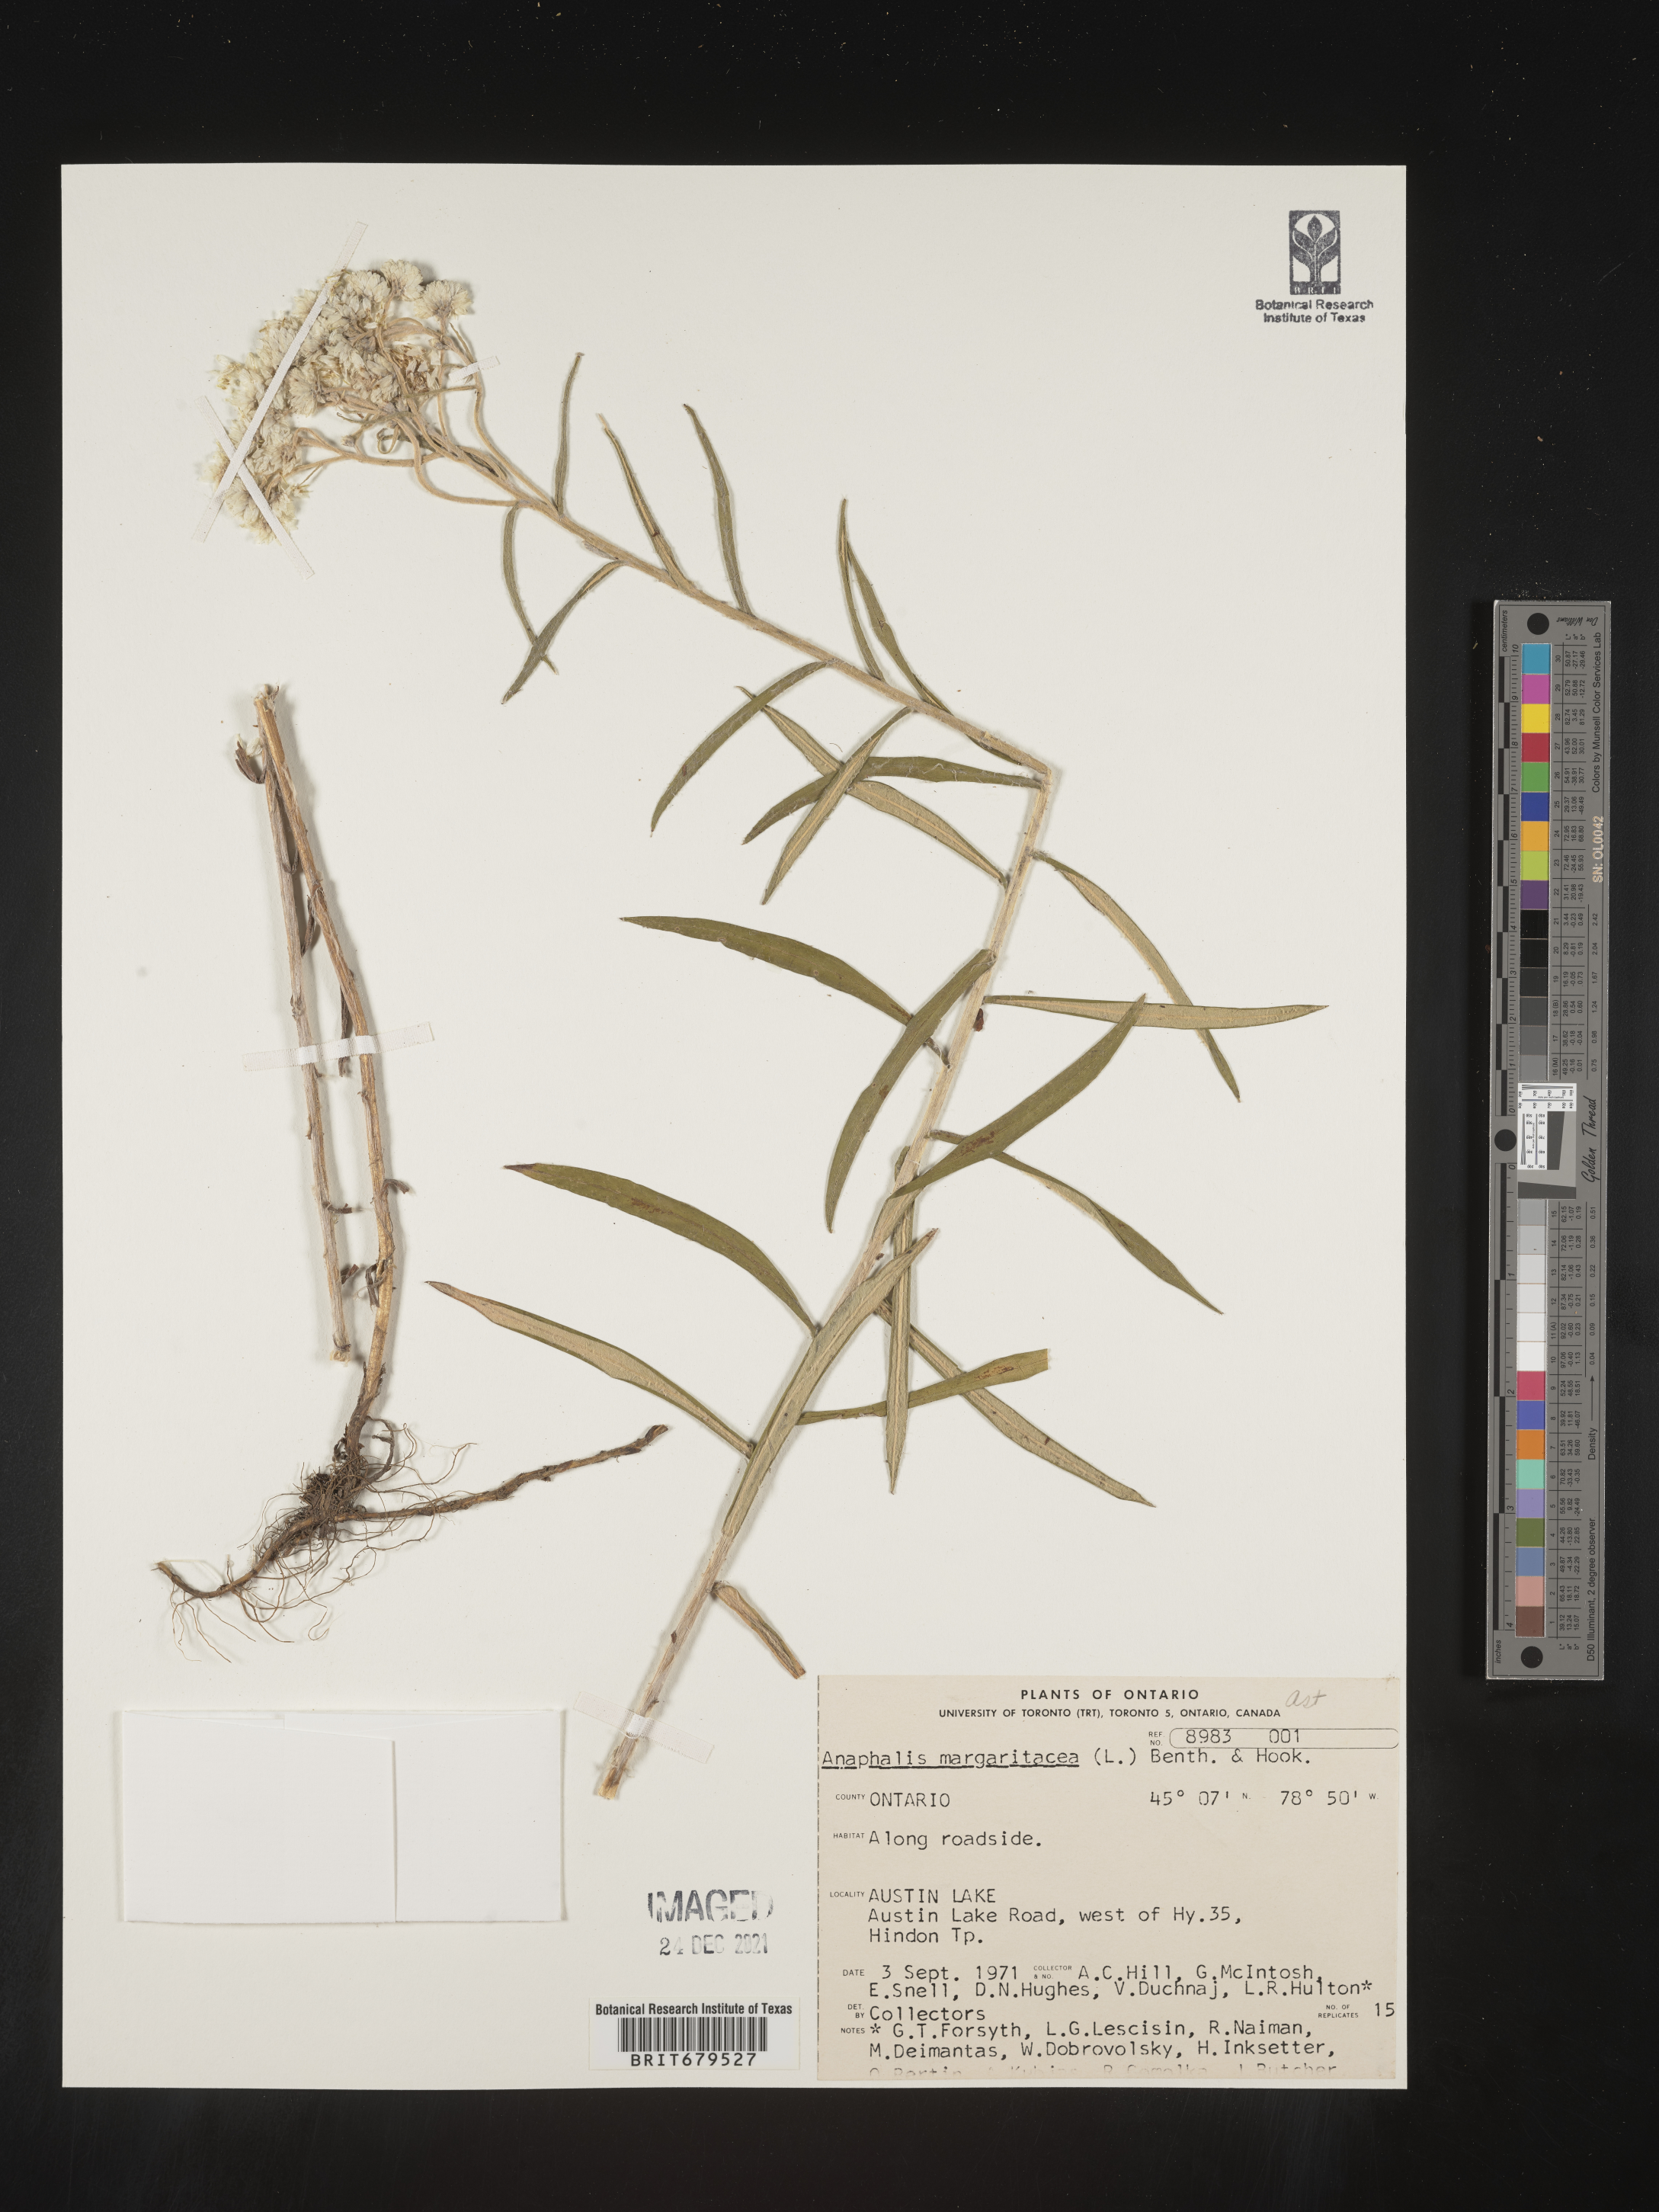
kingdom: Plantae
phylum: Tracheophyta
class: Magnoliopsida
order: Asterales
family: Asteraceae
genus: Anaphalis
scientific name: Anaphalis margaritacea
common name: Pearly everlasting
